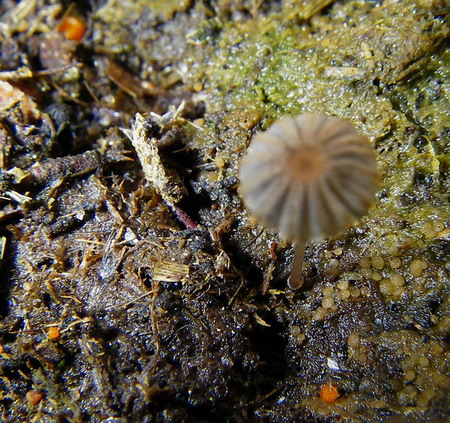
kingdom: Fungi
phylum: Basidiomycota
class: Agaricomycetes
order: Agaricales
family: Psathyrellaceae
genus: Parasola
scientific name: Parasola misera
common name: lillebitte hjulhat
